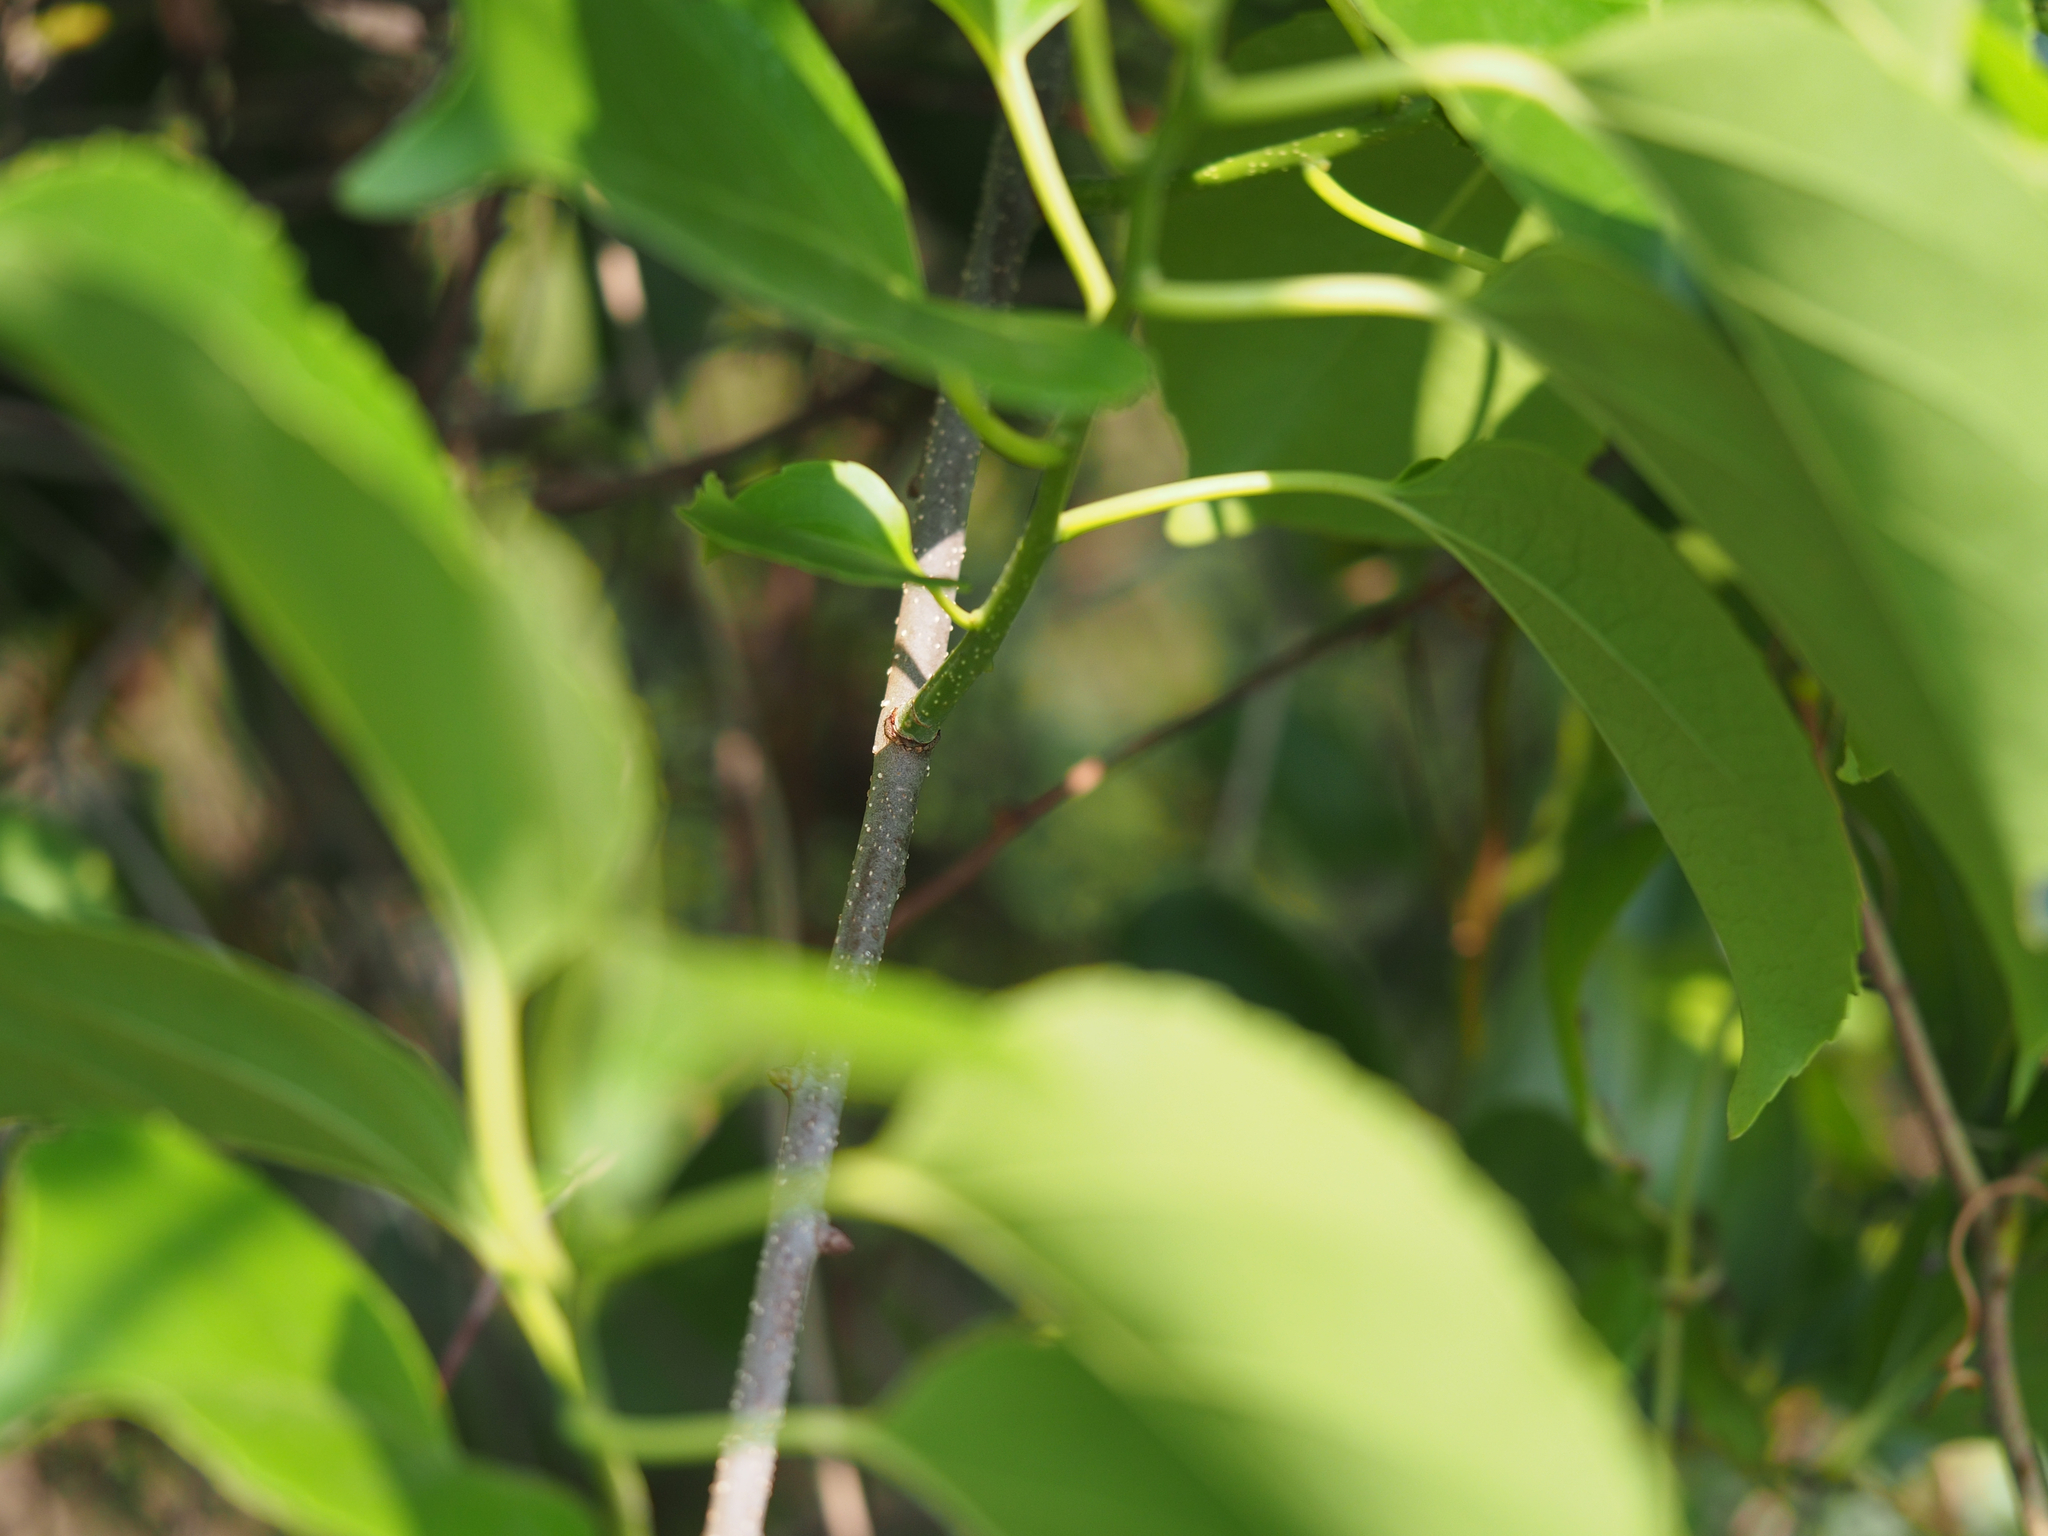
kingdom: Plantae
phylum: Tracheophyta
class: Magnoliopsida
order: Celastrales
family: Celastraceae
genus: Celastrus
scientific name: Celastrus kusanoi
